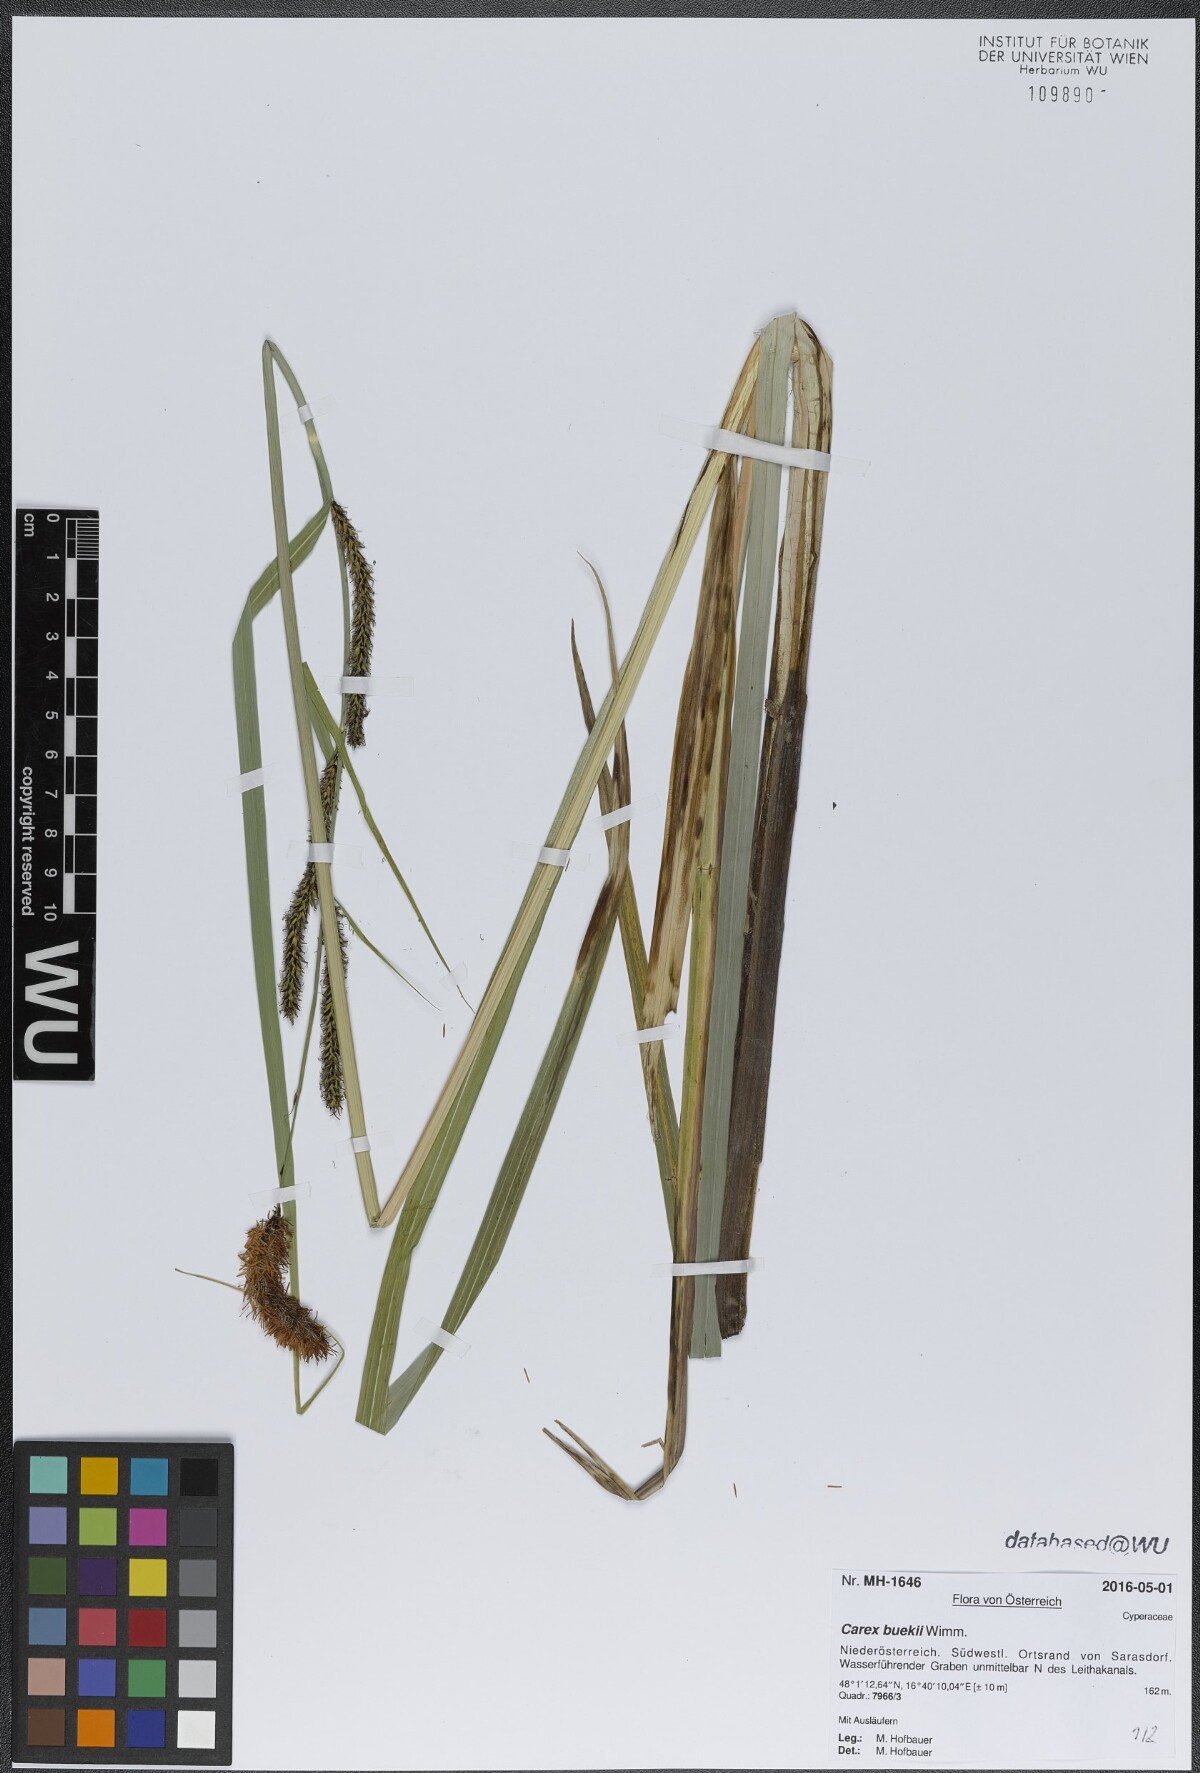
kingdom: Plantae
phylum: Tracheophyta
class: Liliopsida
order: Poales
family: Cyperaceae
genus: Carex
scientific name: Carex buekii
